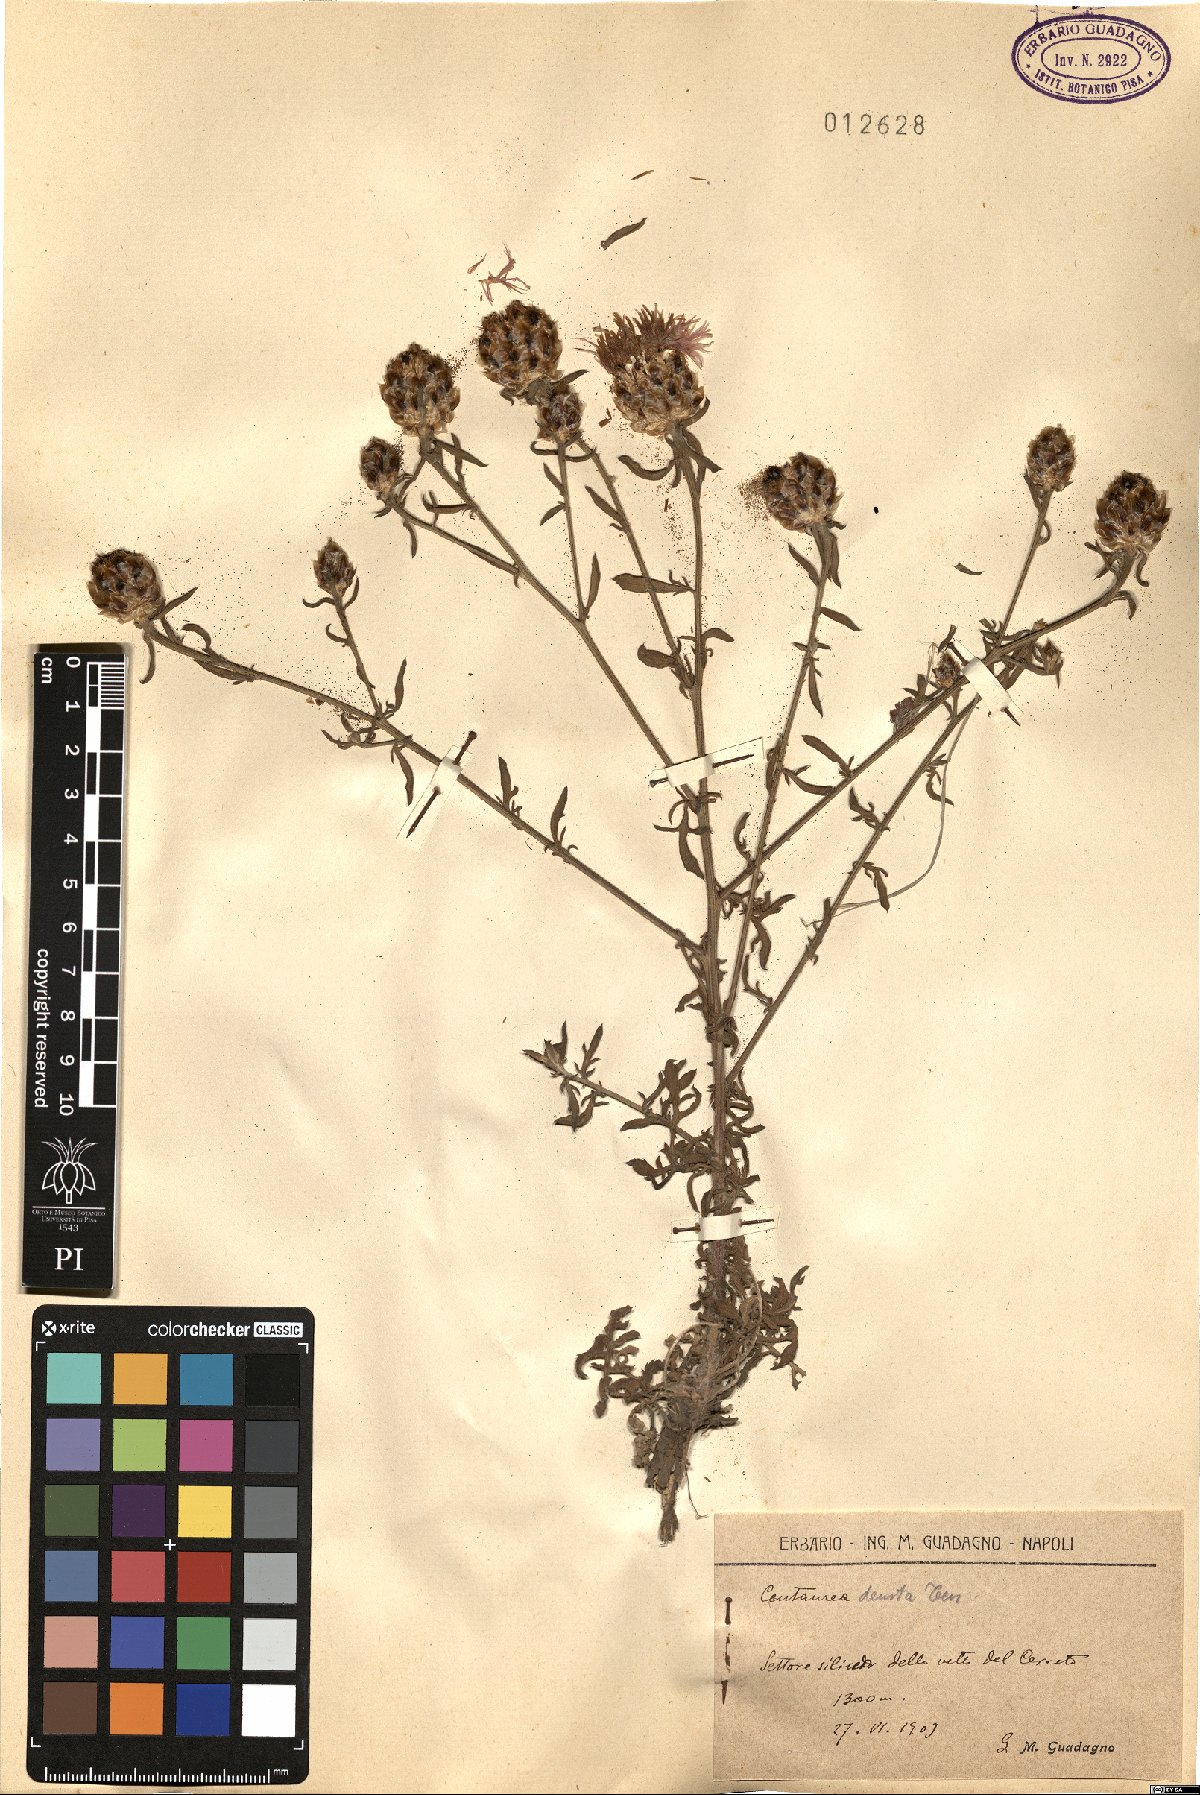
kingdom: Plantae
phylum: Tracheophyta
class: Magnoliopsida
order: Asterales
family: Asteraceae
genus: Centaurea
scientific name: Centaurea deusta
